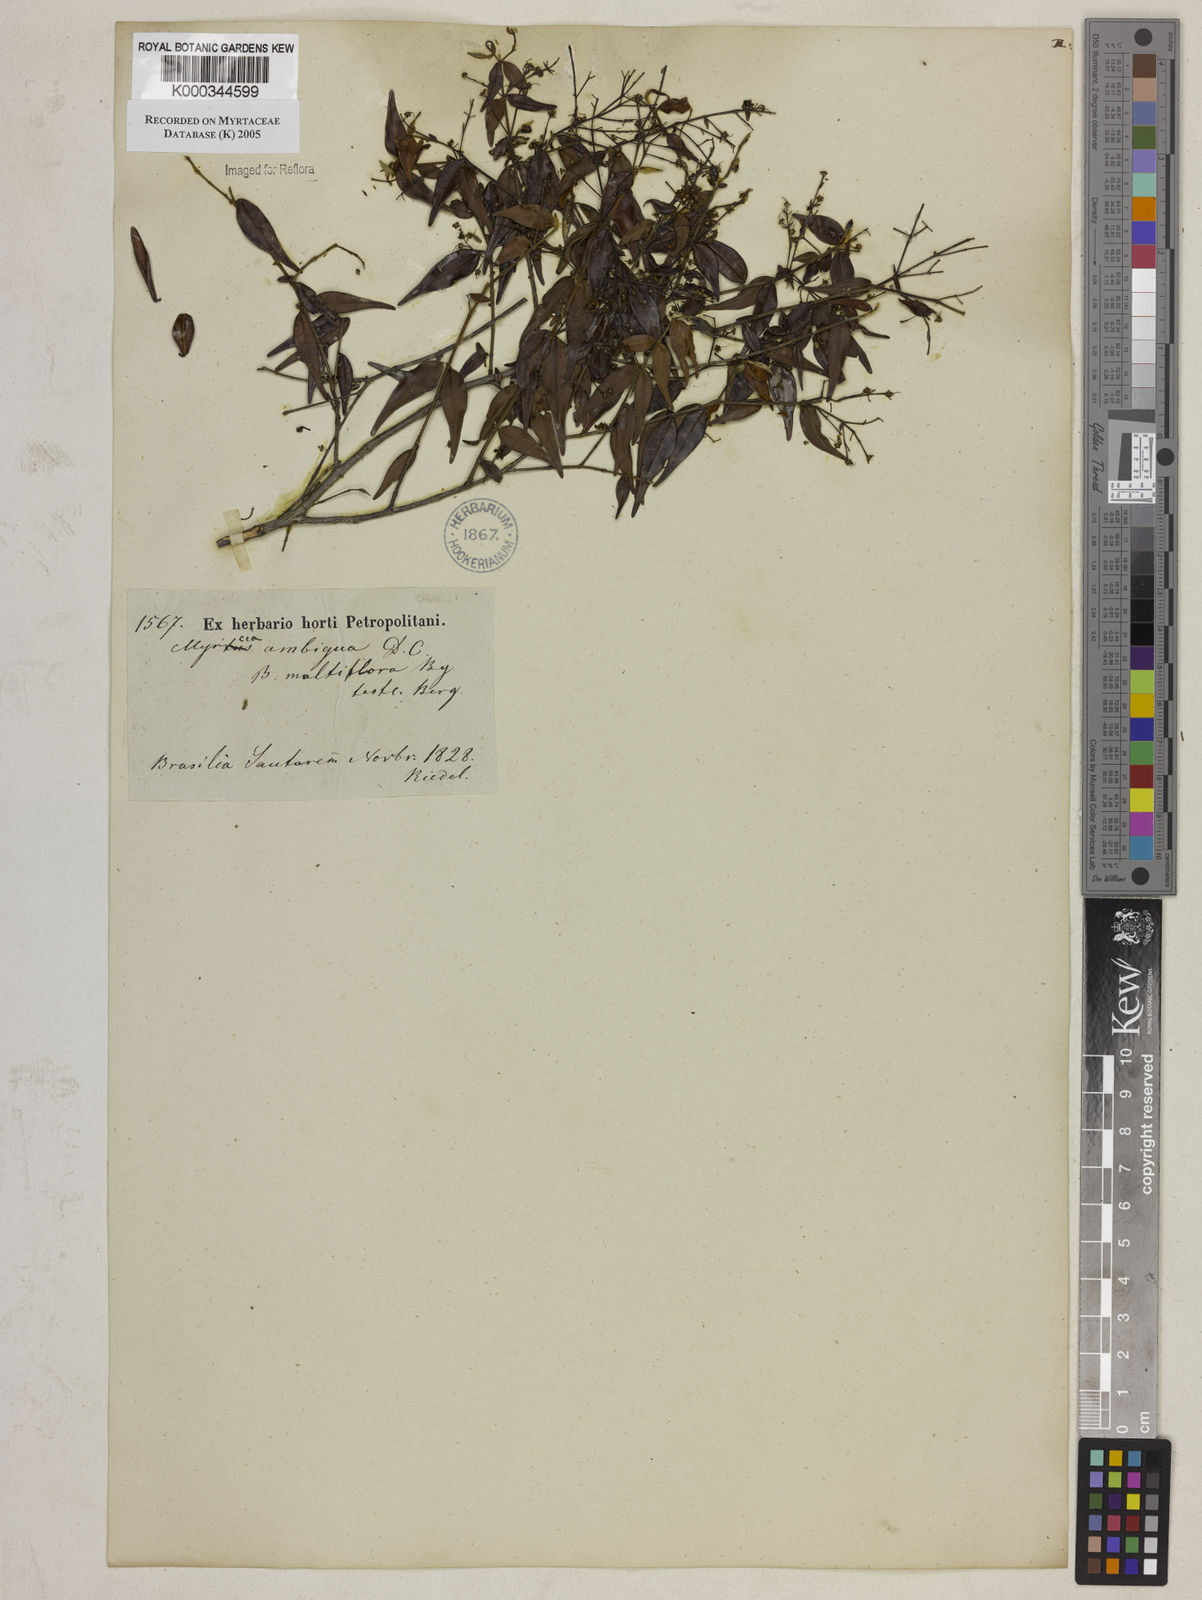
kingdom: Plantae
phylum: Tracheophyta
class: Magnoliopsida
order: Myrtales
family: Myrtaceae
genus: Myrcia
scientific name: Myrcia sylvatica
